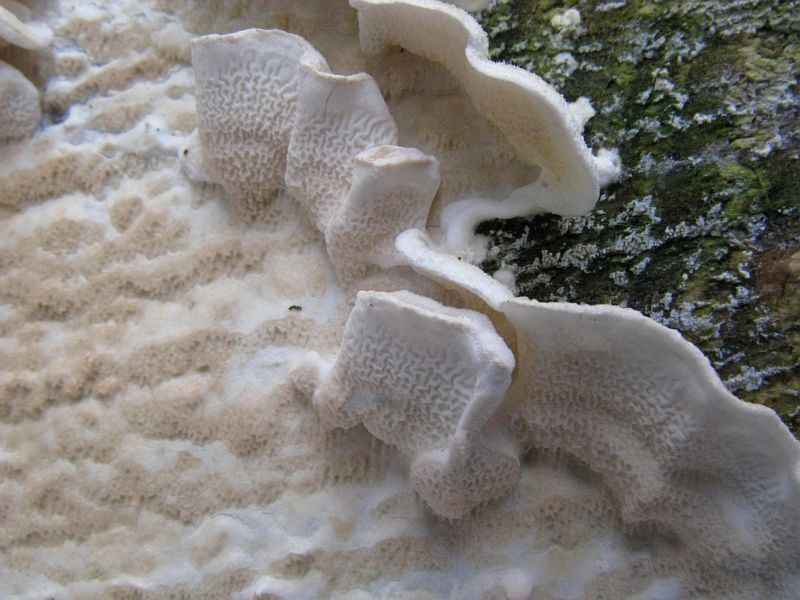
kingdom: Fungi
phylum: Basidiomycota
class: Agaricomycetes
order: Polyporales
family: Irpicaceae
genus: Byssomerulius
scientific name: Byssomerulius corium
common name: læder-åresvamp
